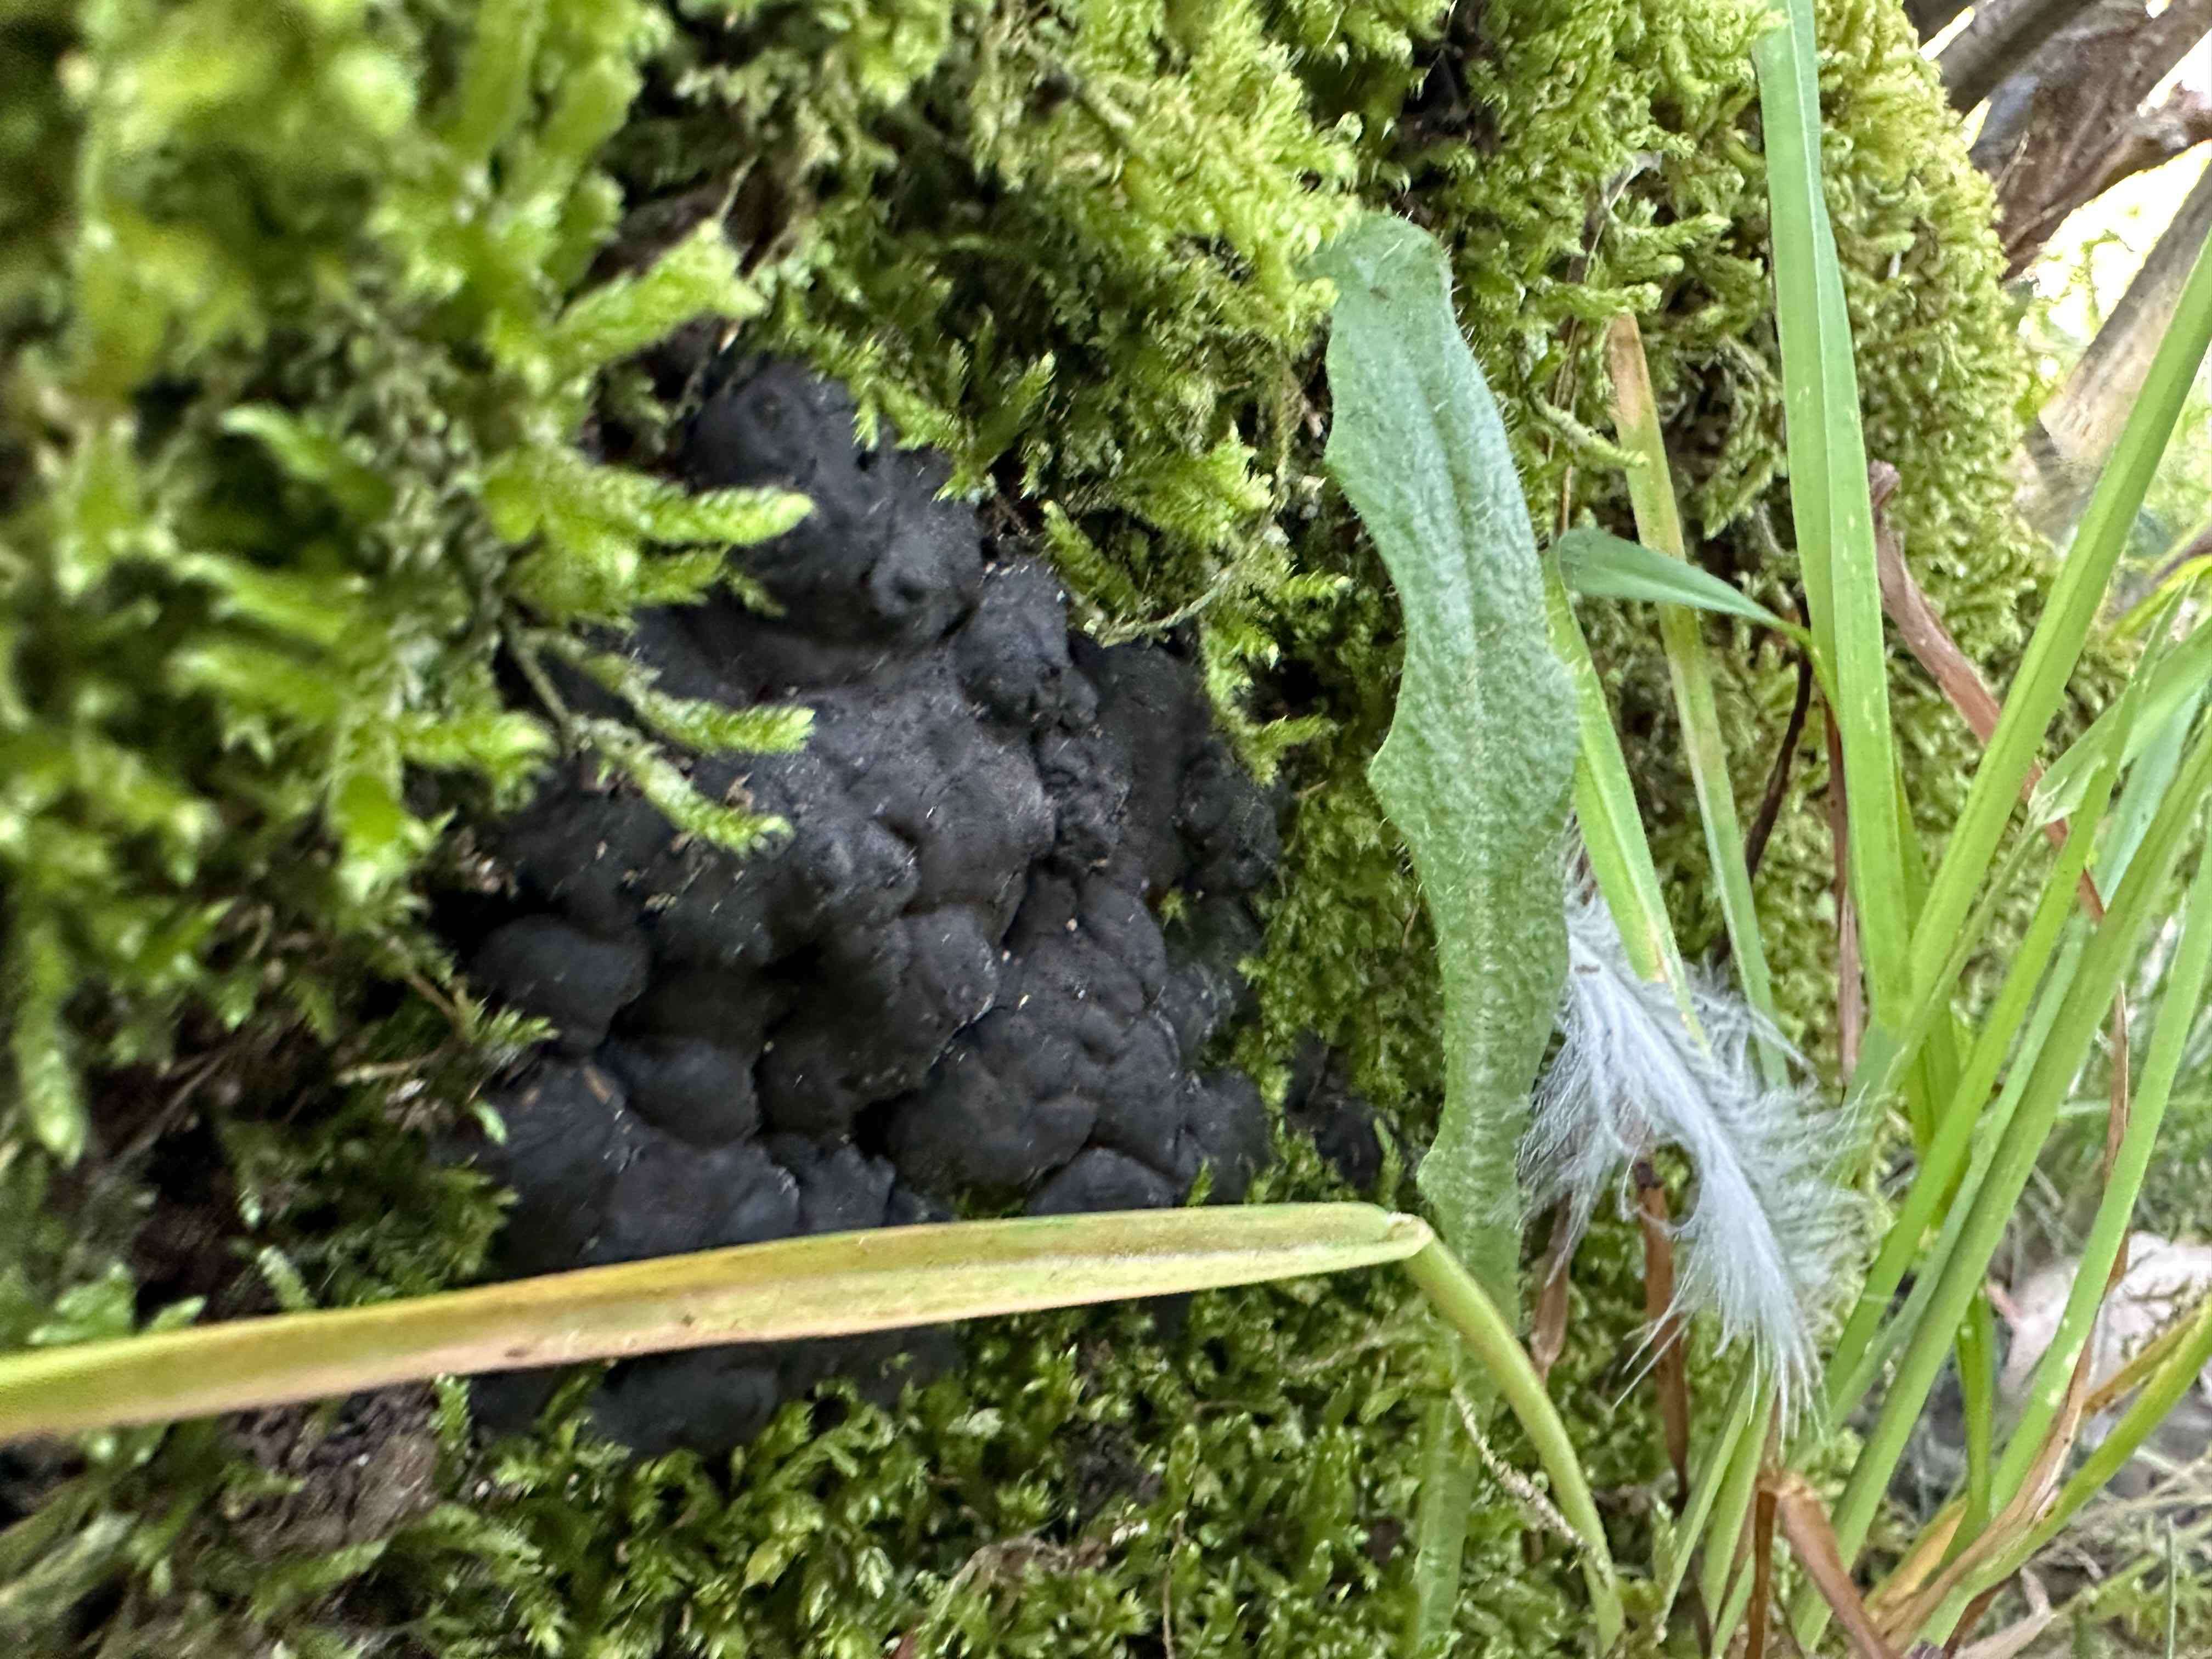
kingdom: Fungi
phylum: Ascomycota
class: Sordariomycetes
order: Xylariales
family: Xylariaceae
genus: Kretzschmaria
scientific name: Kretzschmaria deusta
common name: stor kulsvamp
